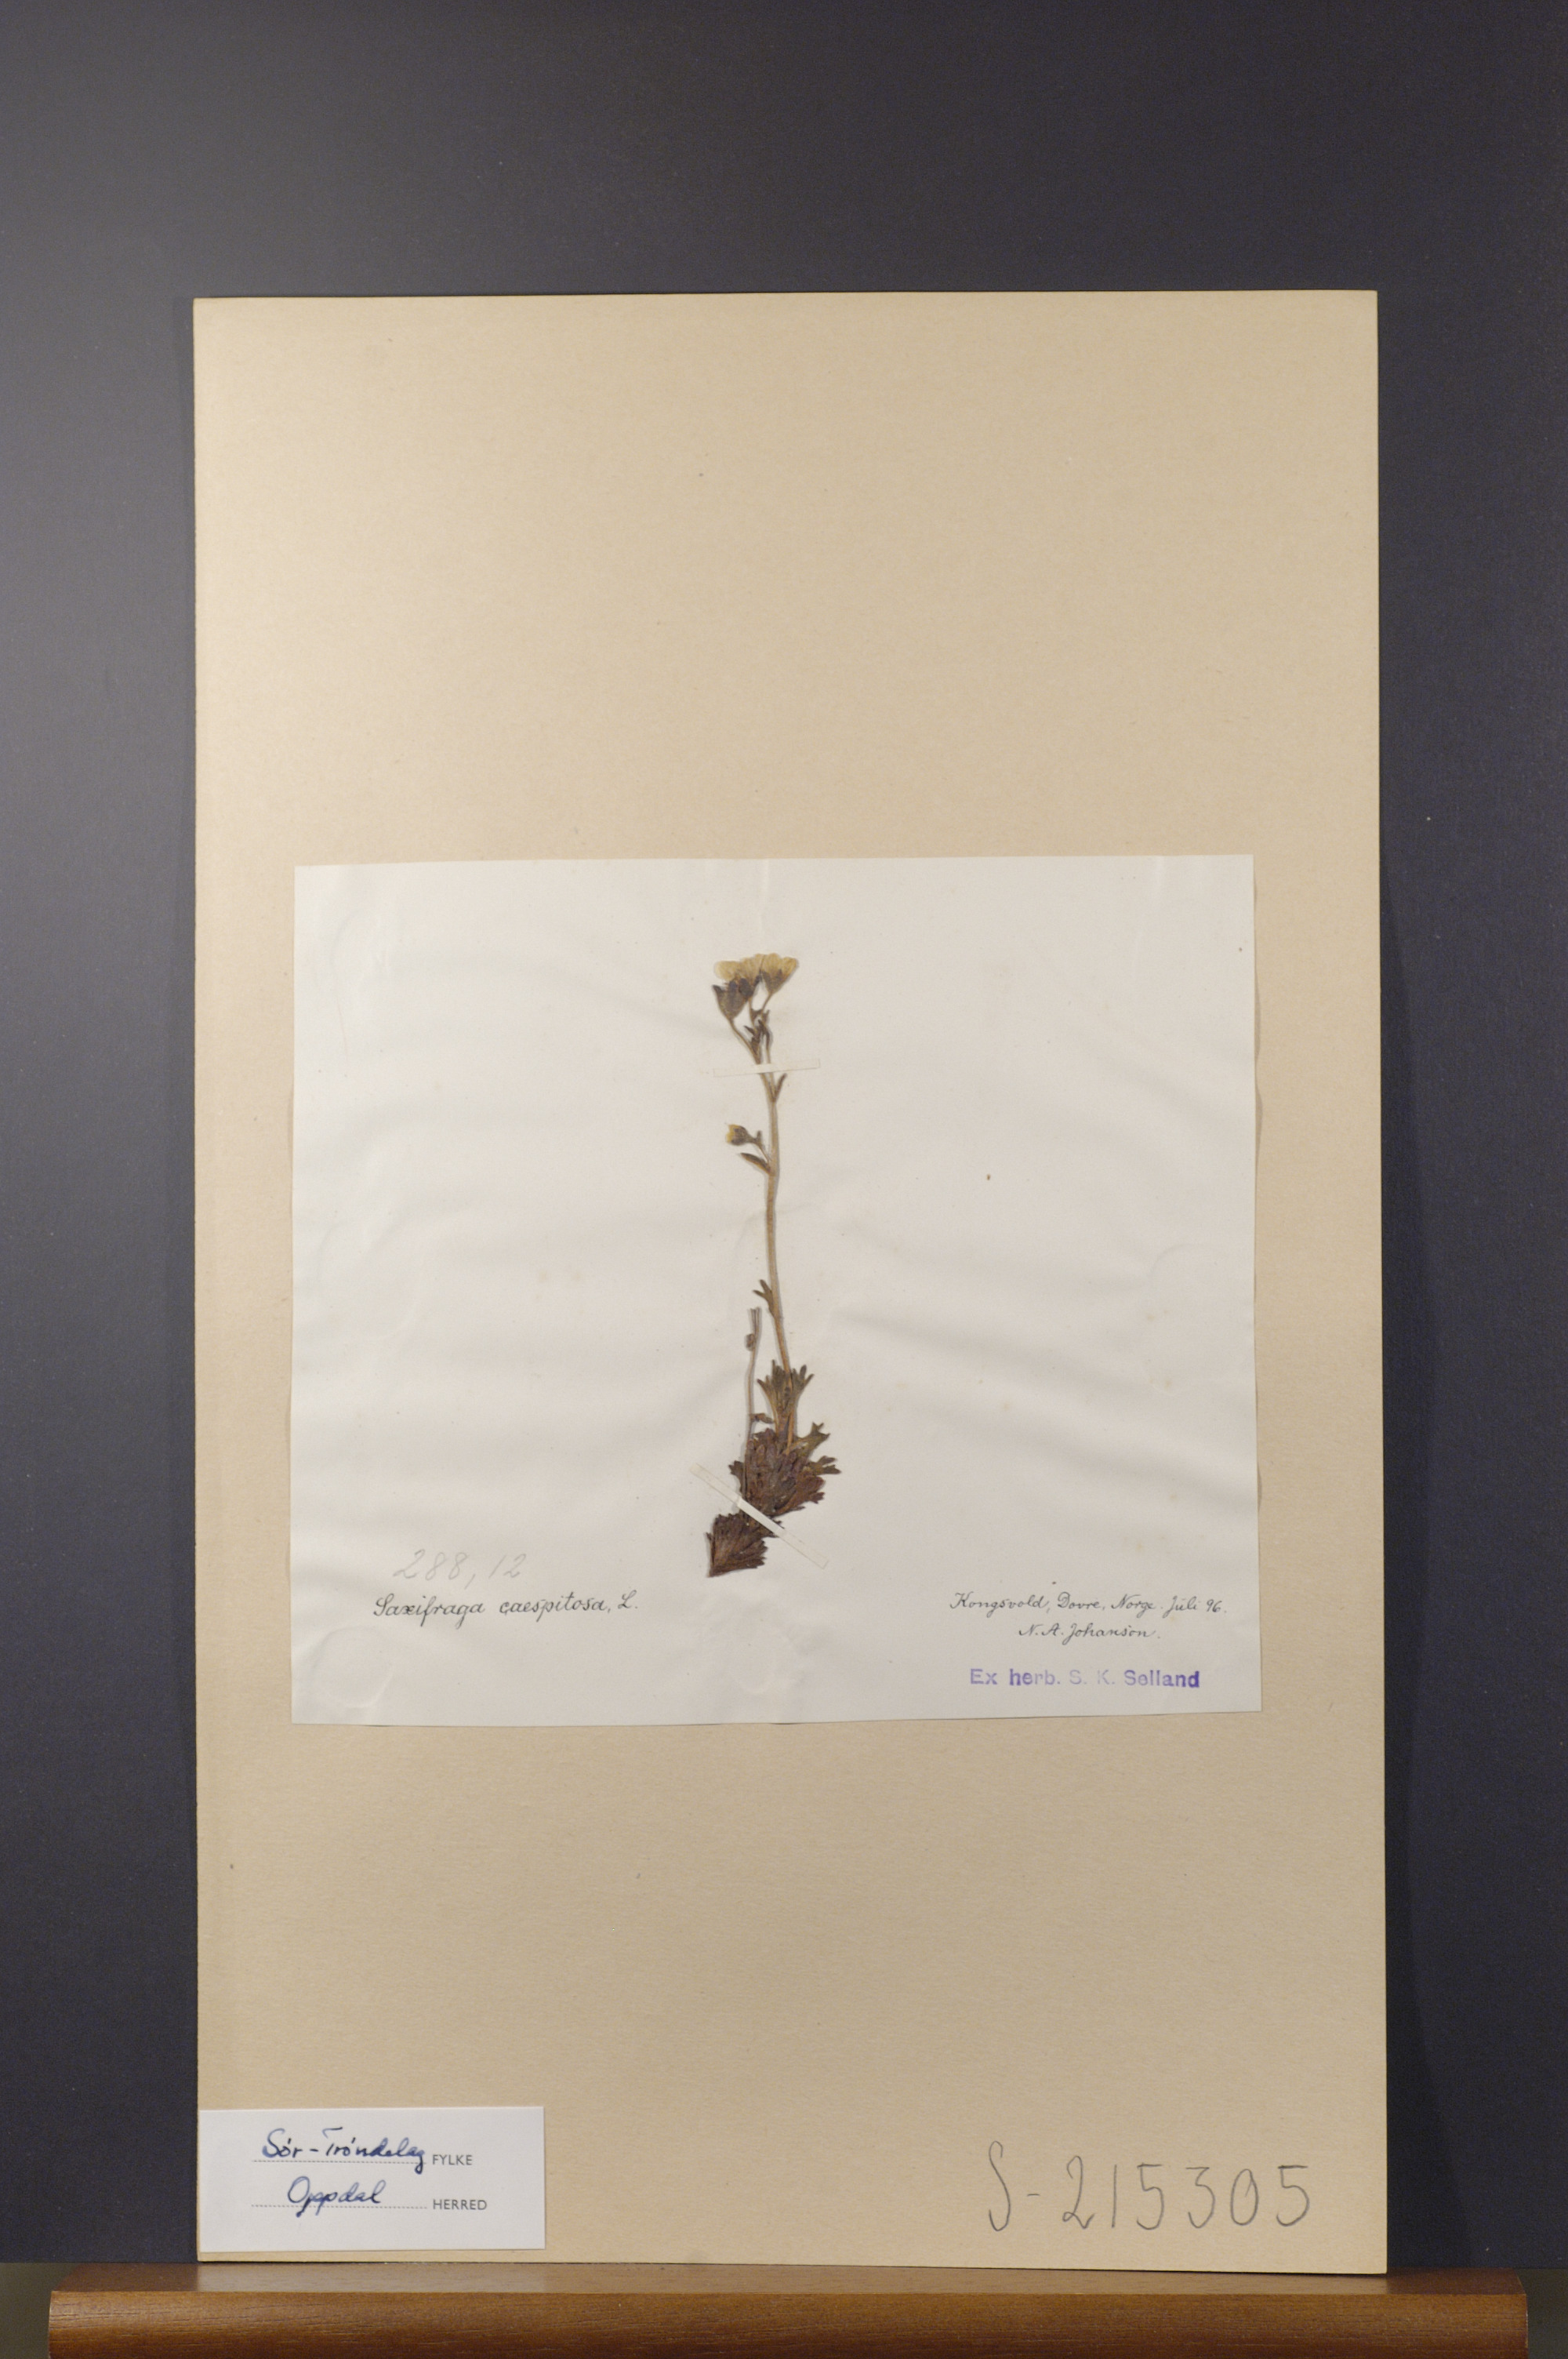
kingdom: Plantae
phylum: Tracheophyta
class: Magnoliopsida
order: Saxifragales
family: Saxifragaceae
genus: Saxifraga
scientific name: Saxifraga cespitosa
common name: Tufted saxifrage
